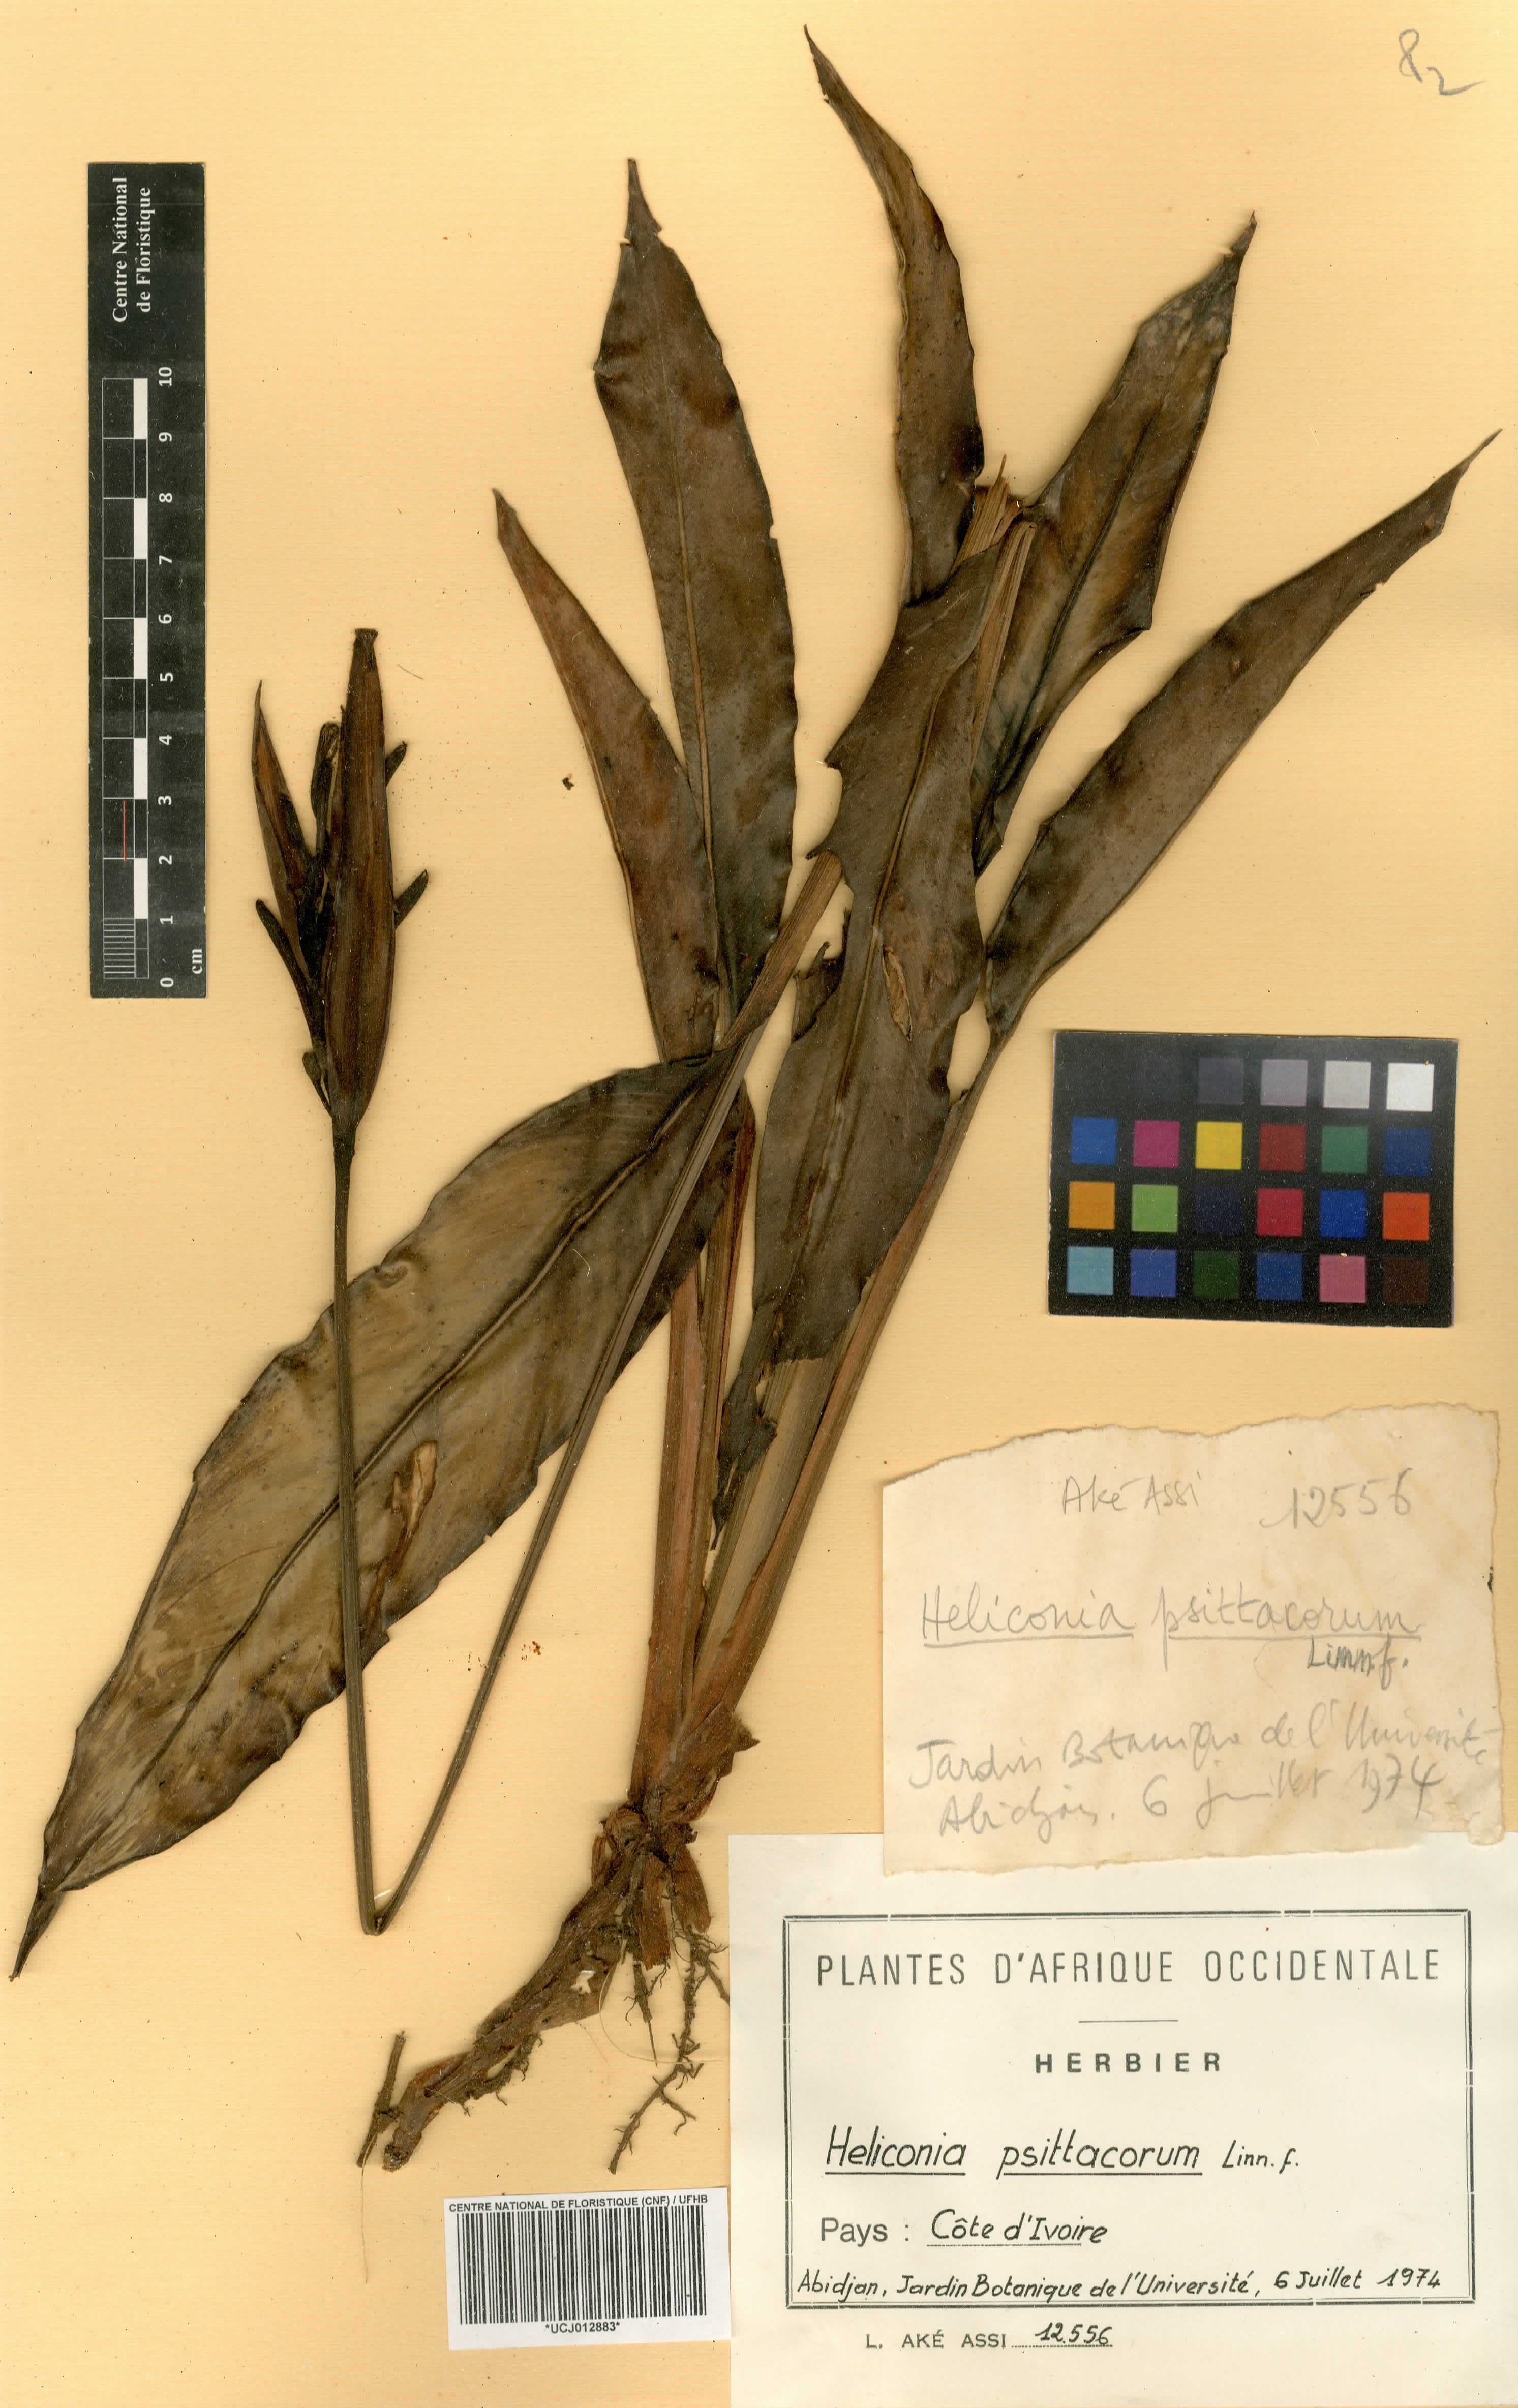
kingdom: Plantae
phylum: Tracheophyta
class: Liliopsida
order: Zingiberales
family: Heliconiaceae
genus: Heliconia
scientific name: Heliconia psittacorum
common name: Parrot's-flower
